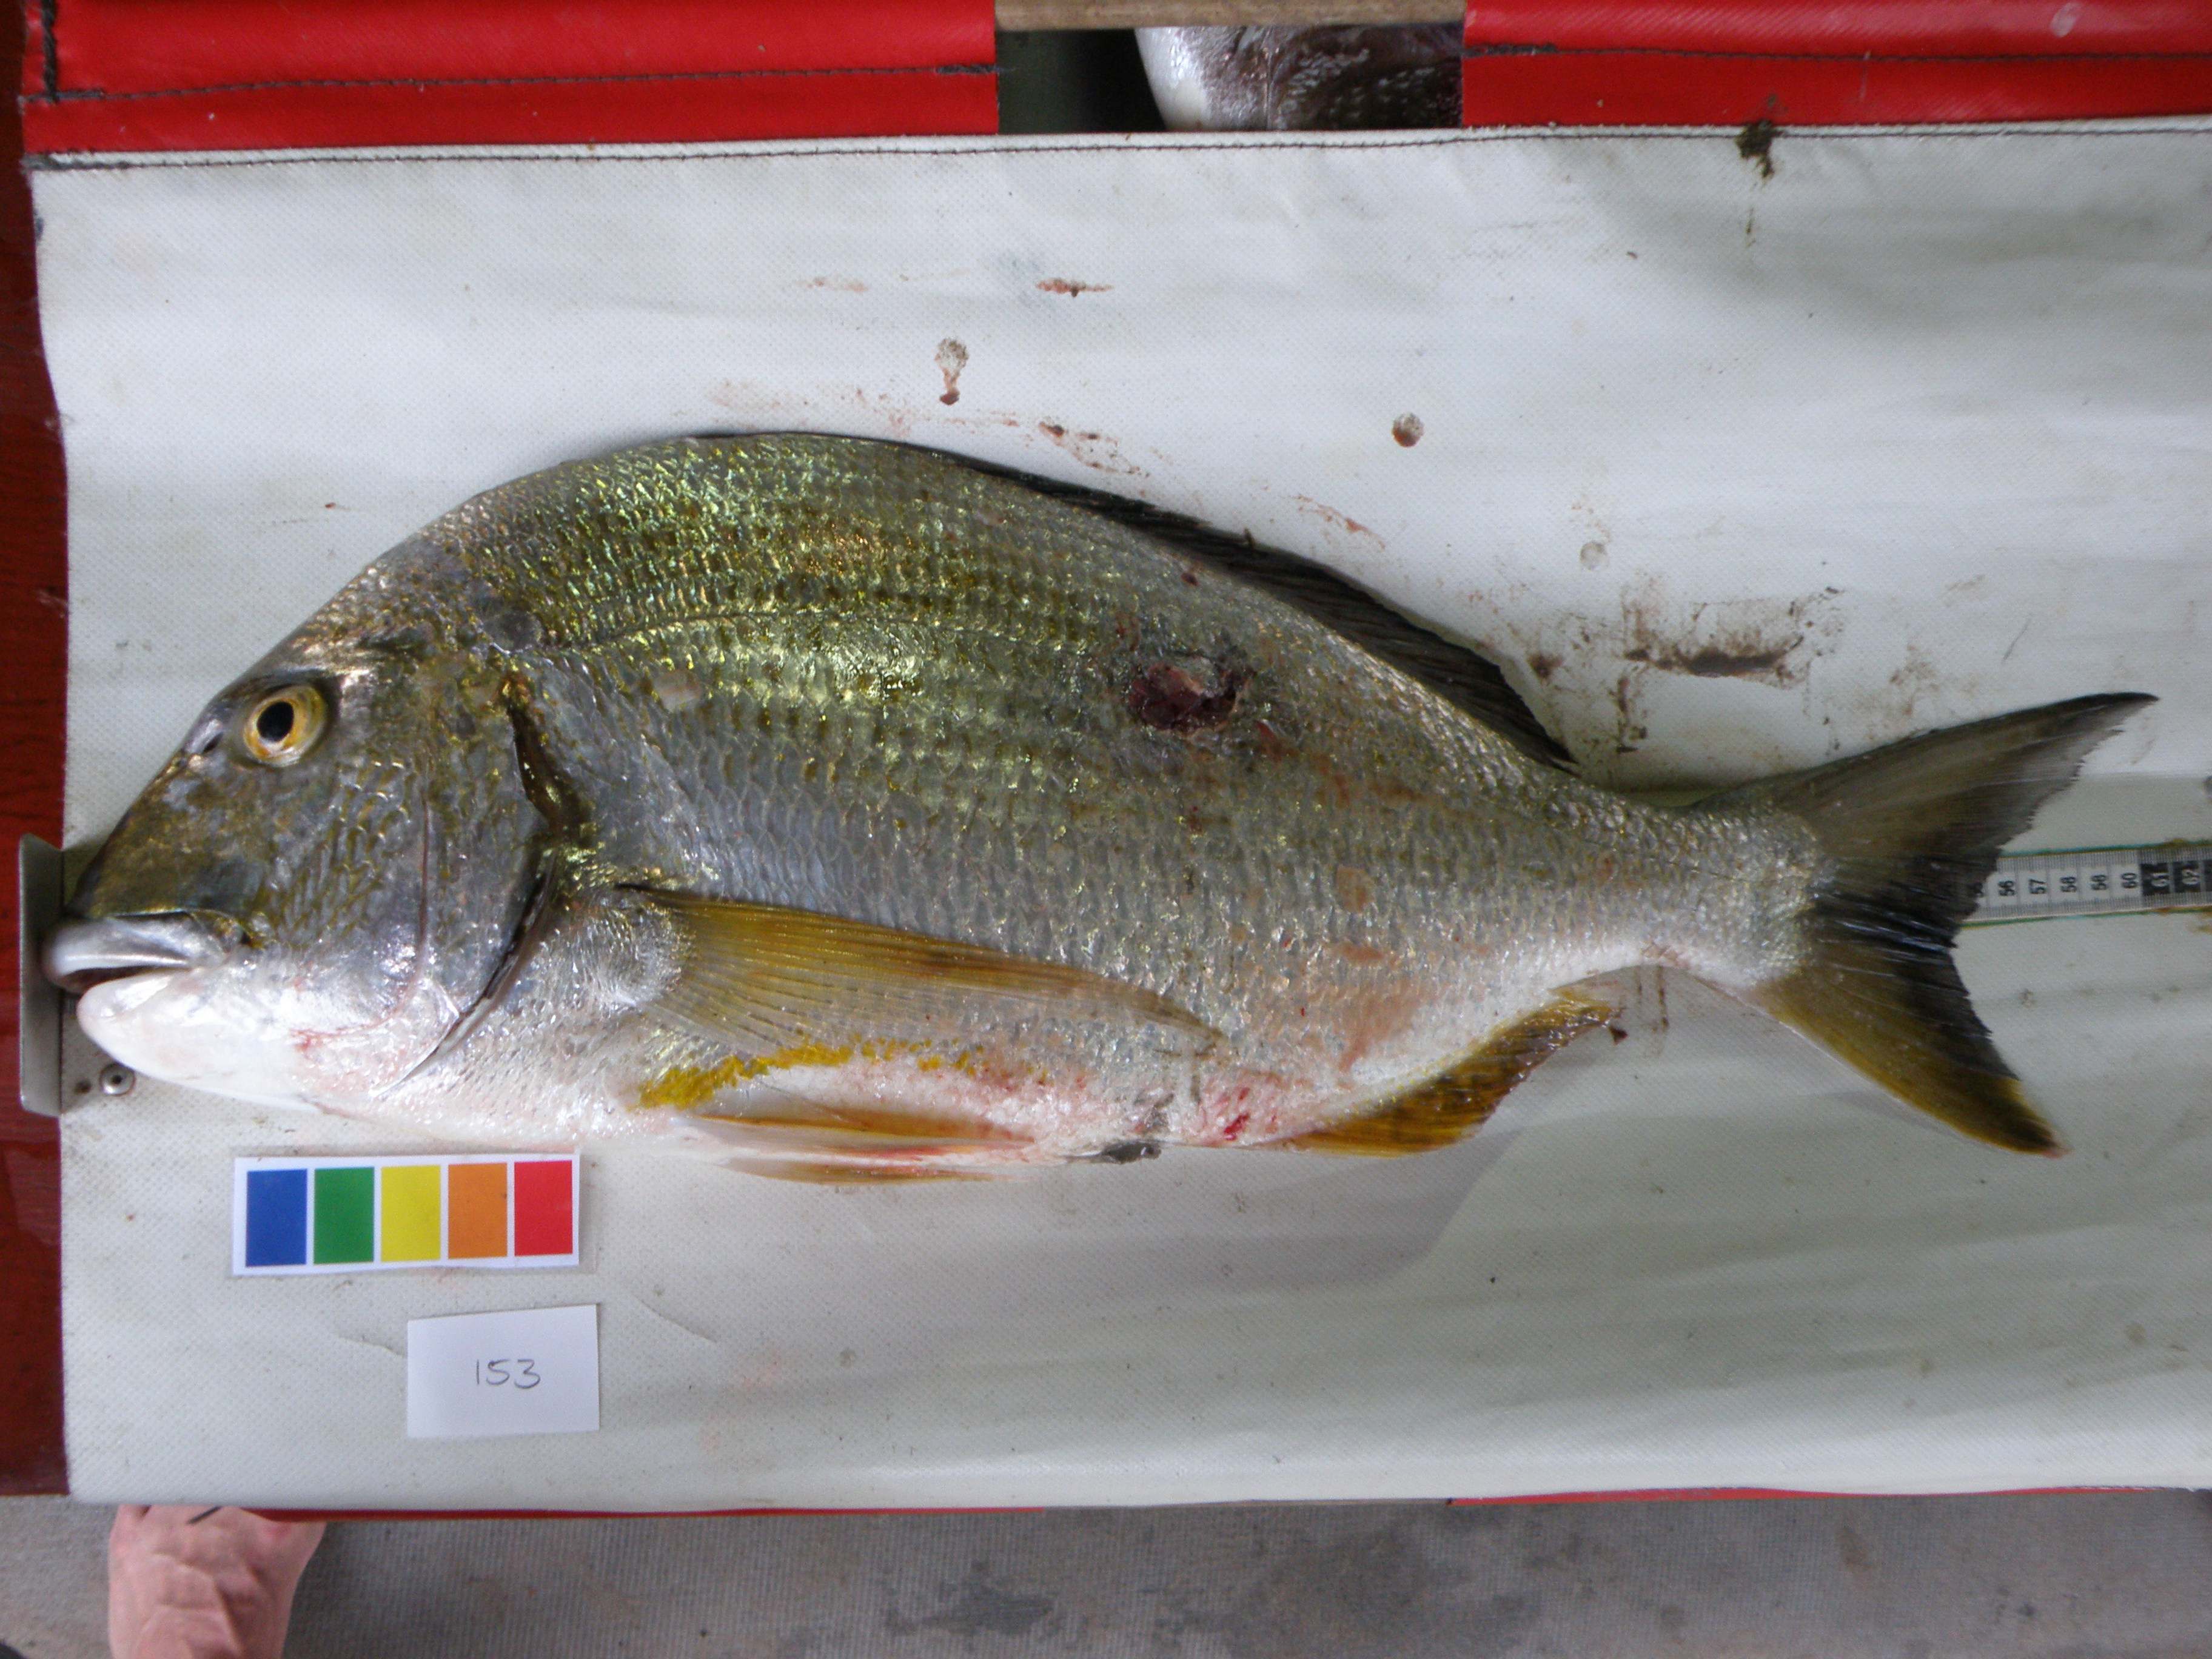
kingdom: Animalia
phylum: Chordata
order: Perciformes
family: Sparidae
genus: Rhabdosargus
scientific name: Rhabdosargus sarba
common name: Goldlined seabream
